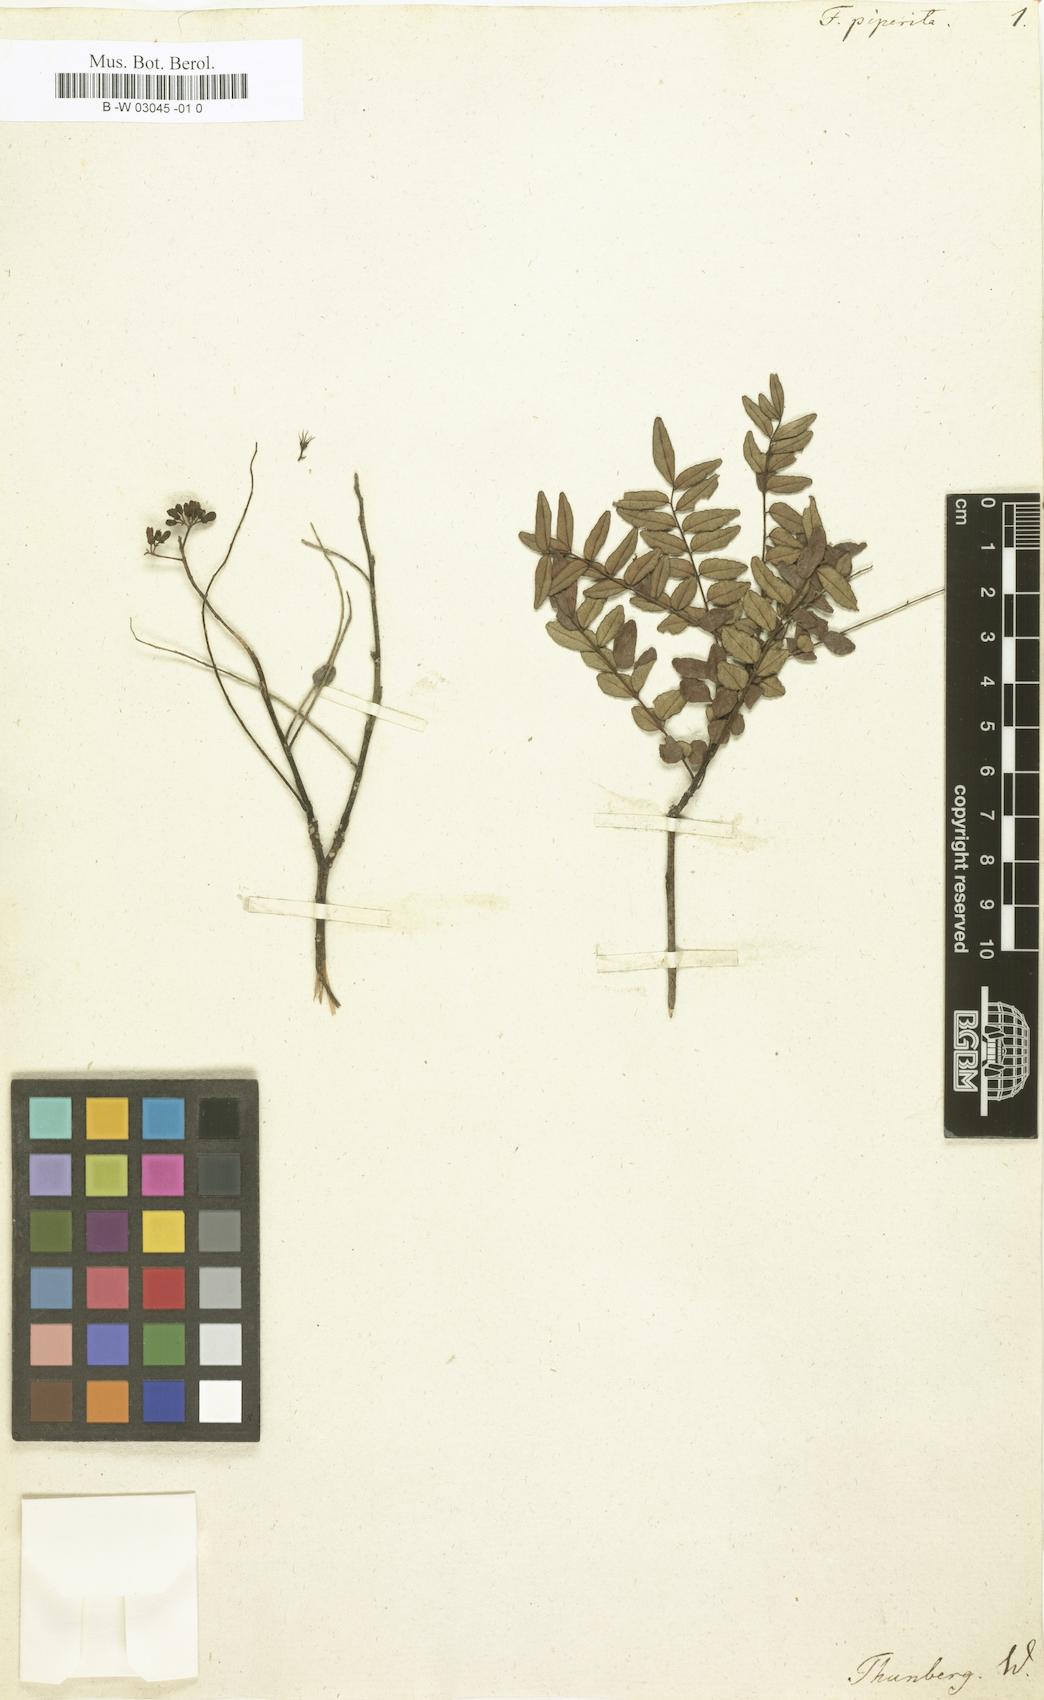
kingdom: Plantae
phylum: Tracheophyta
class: Magnoliopsida
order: Sapindales
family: Rutaceae
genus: Zanthoxylum
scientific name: Zanthoxylum nitidum
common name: Shiny-leaf prickly-ash
